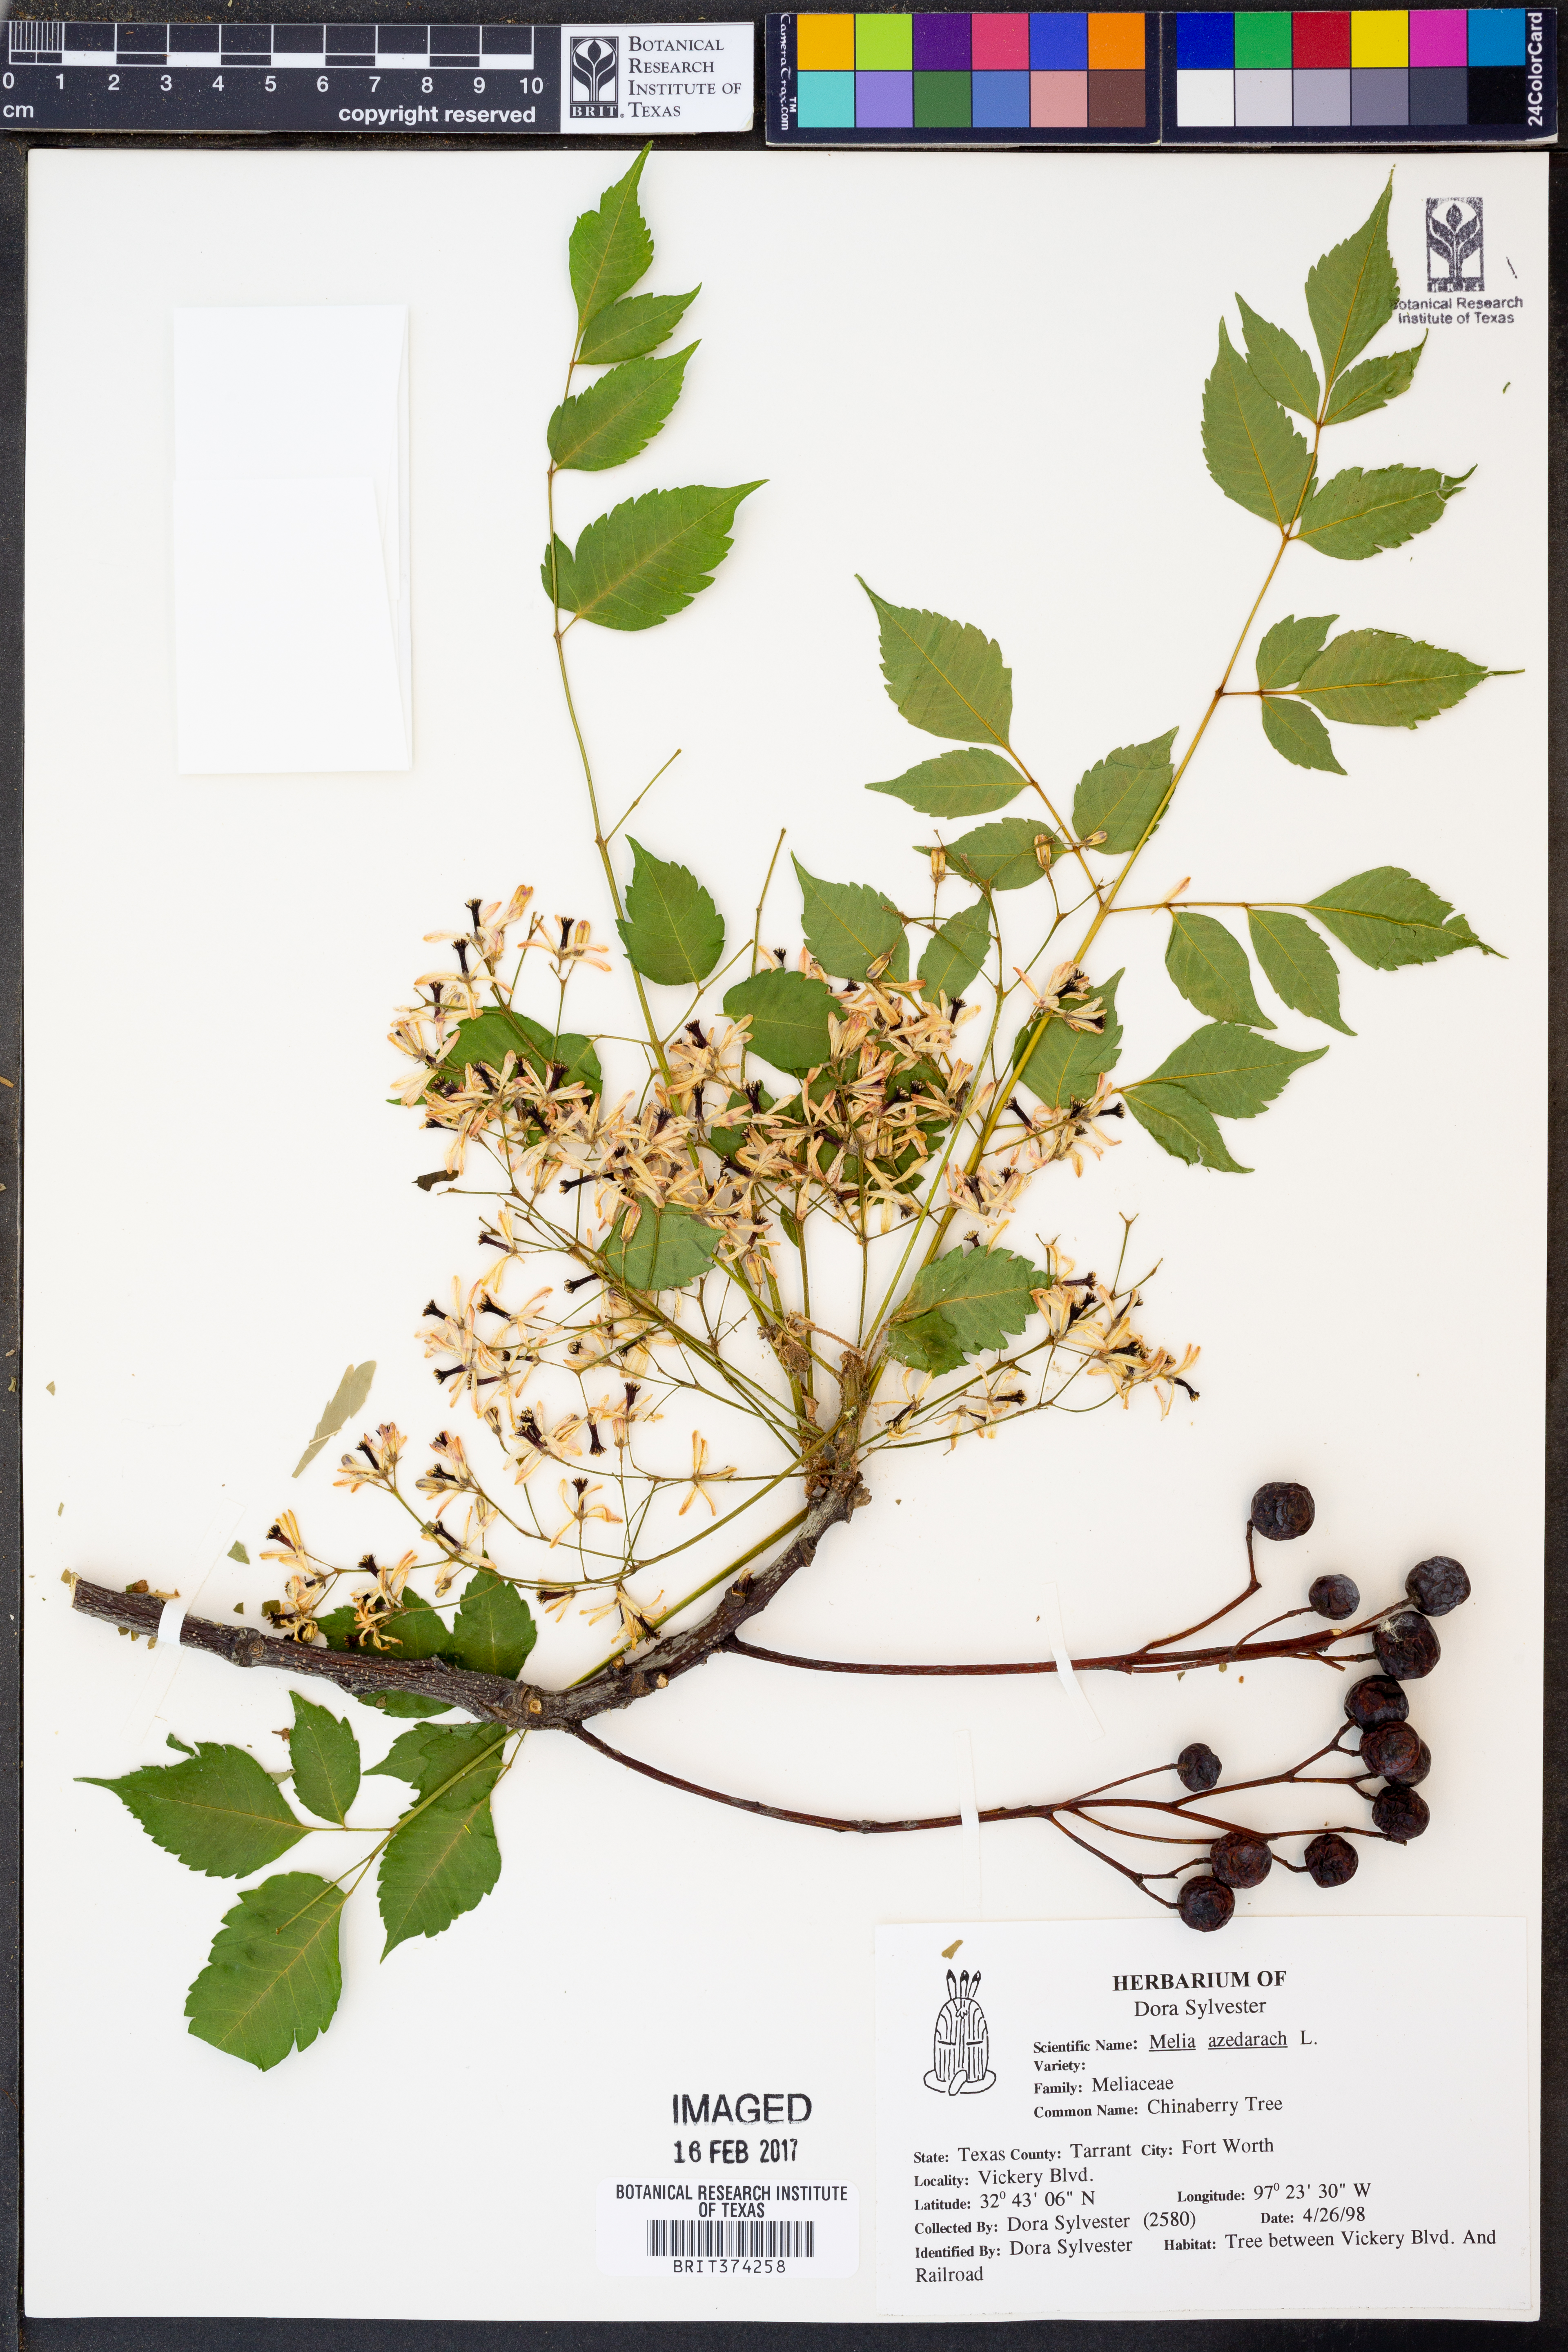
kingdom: Plantae
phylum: Tracheophyta
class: Magnoliopsida
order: Sapindales
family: Meliaceae
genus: Melia
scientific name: Melia azedarach
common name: Chinaberrytree
